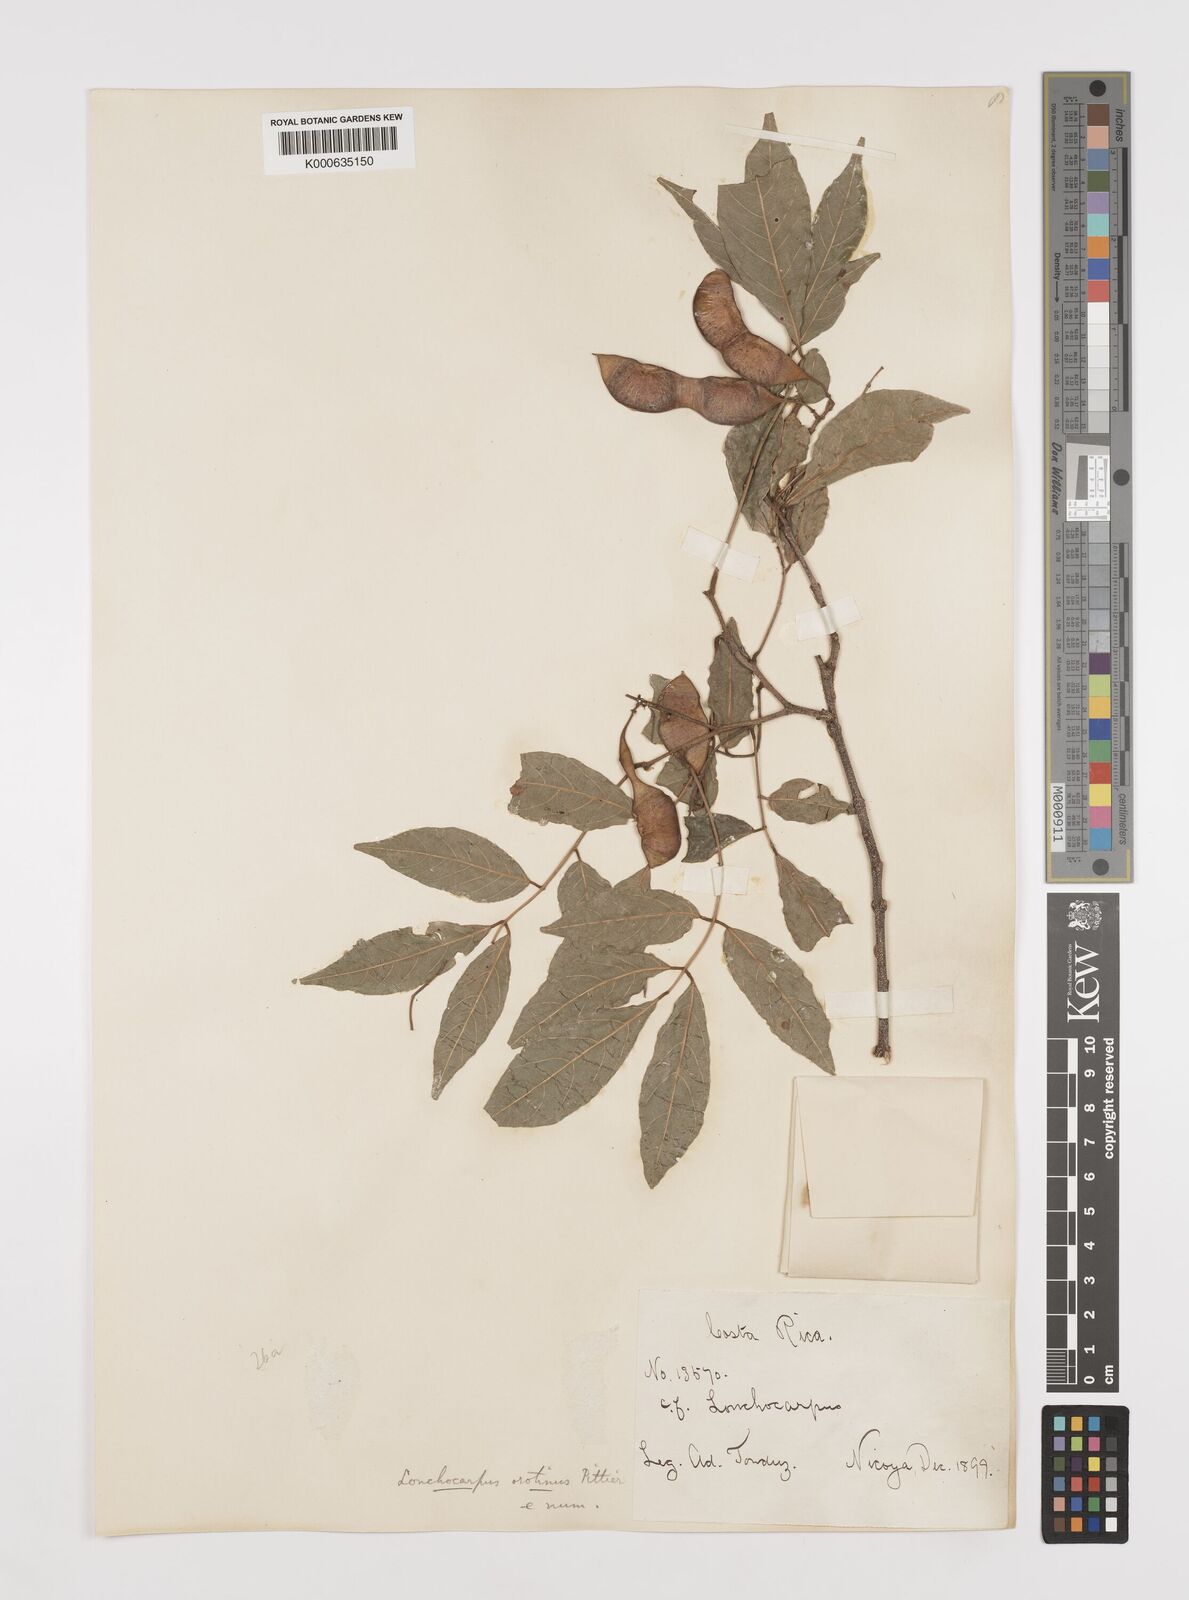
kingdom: Plantae
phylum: Tracheophyta
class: Magnoliopsida
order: Fabales
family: Fabaceae
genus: Lonchocarpus
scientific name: Lonchocarpus parviflorus
